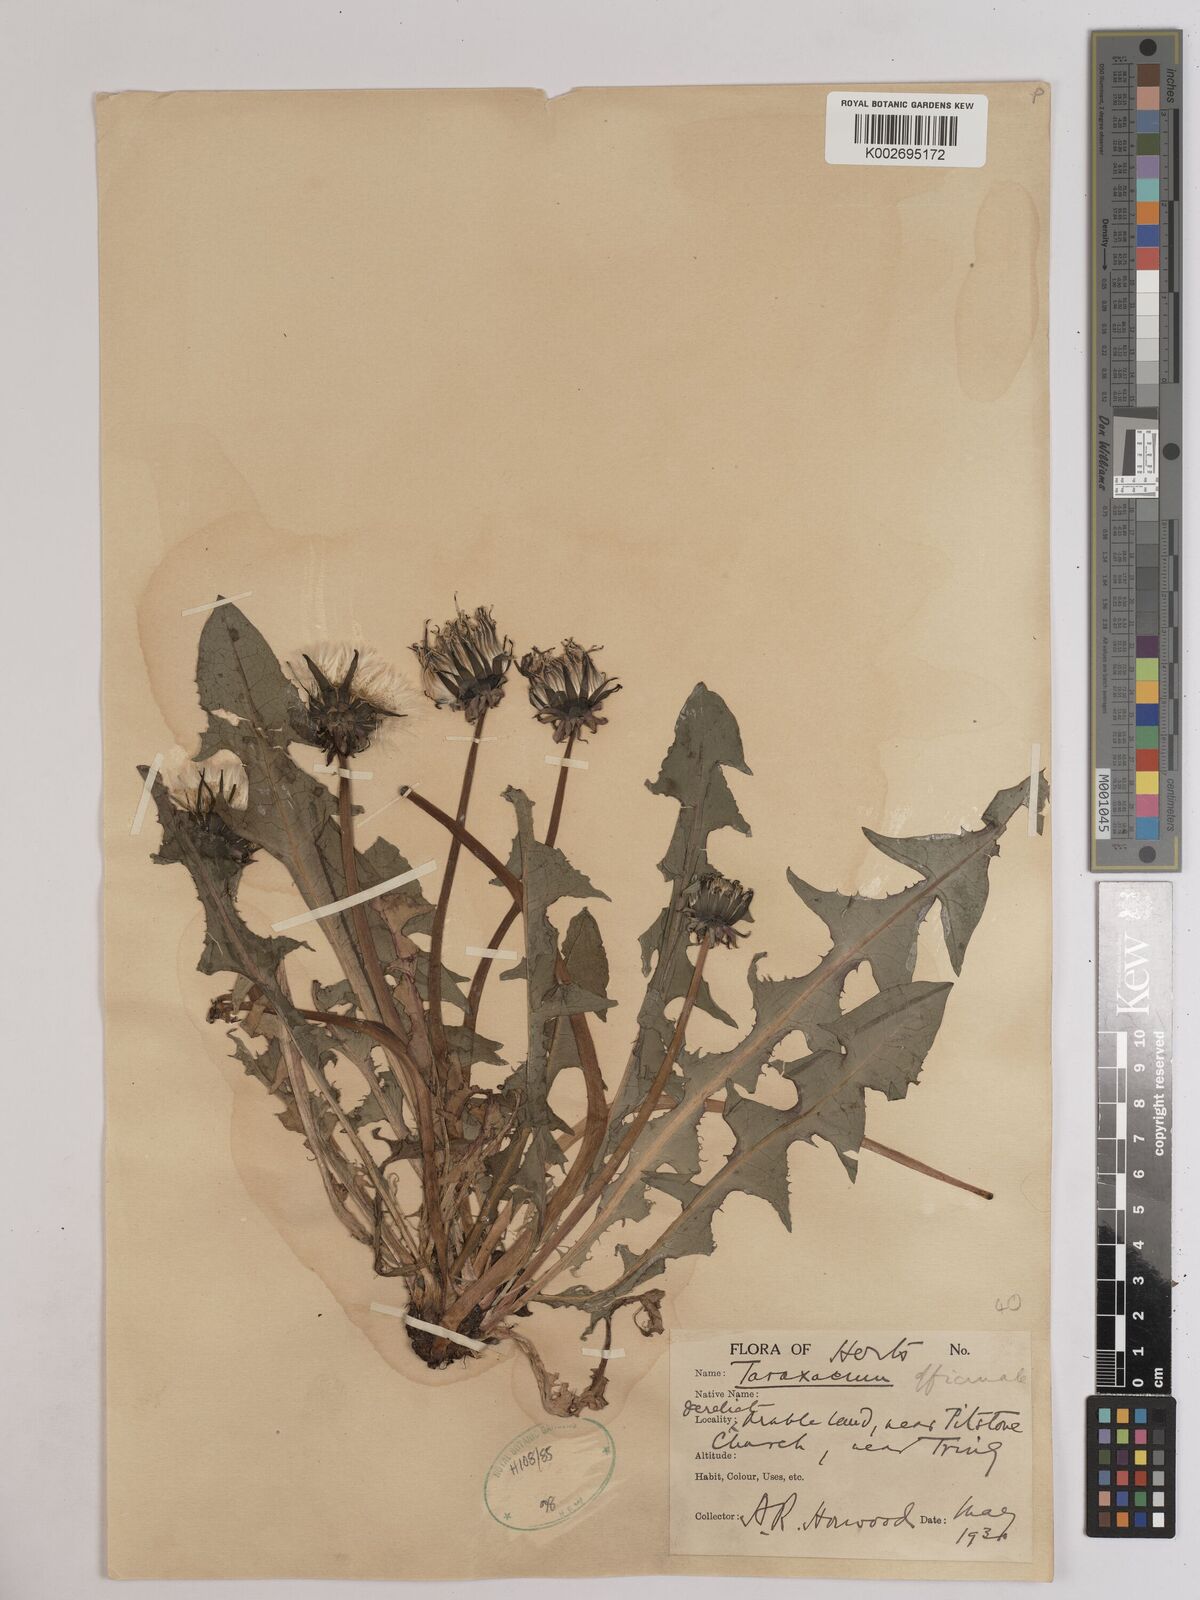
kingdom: Plantae
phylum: Tracheophyta
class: Magnoliopsida
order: Asterales
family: Asteraceae
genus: Taraxacum
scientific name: Taraxacum officinale
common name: Common dandelion
